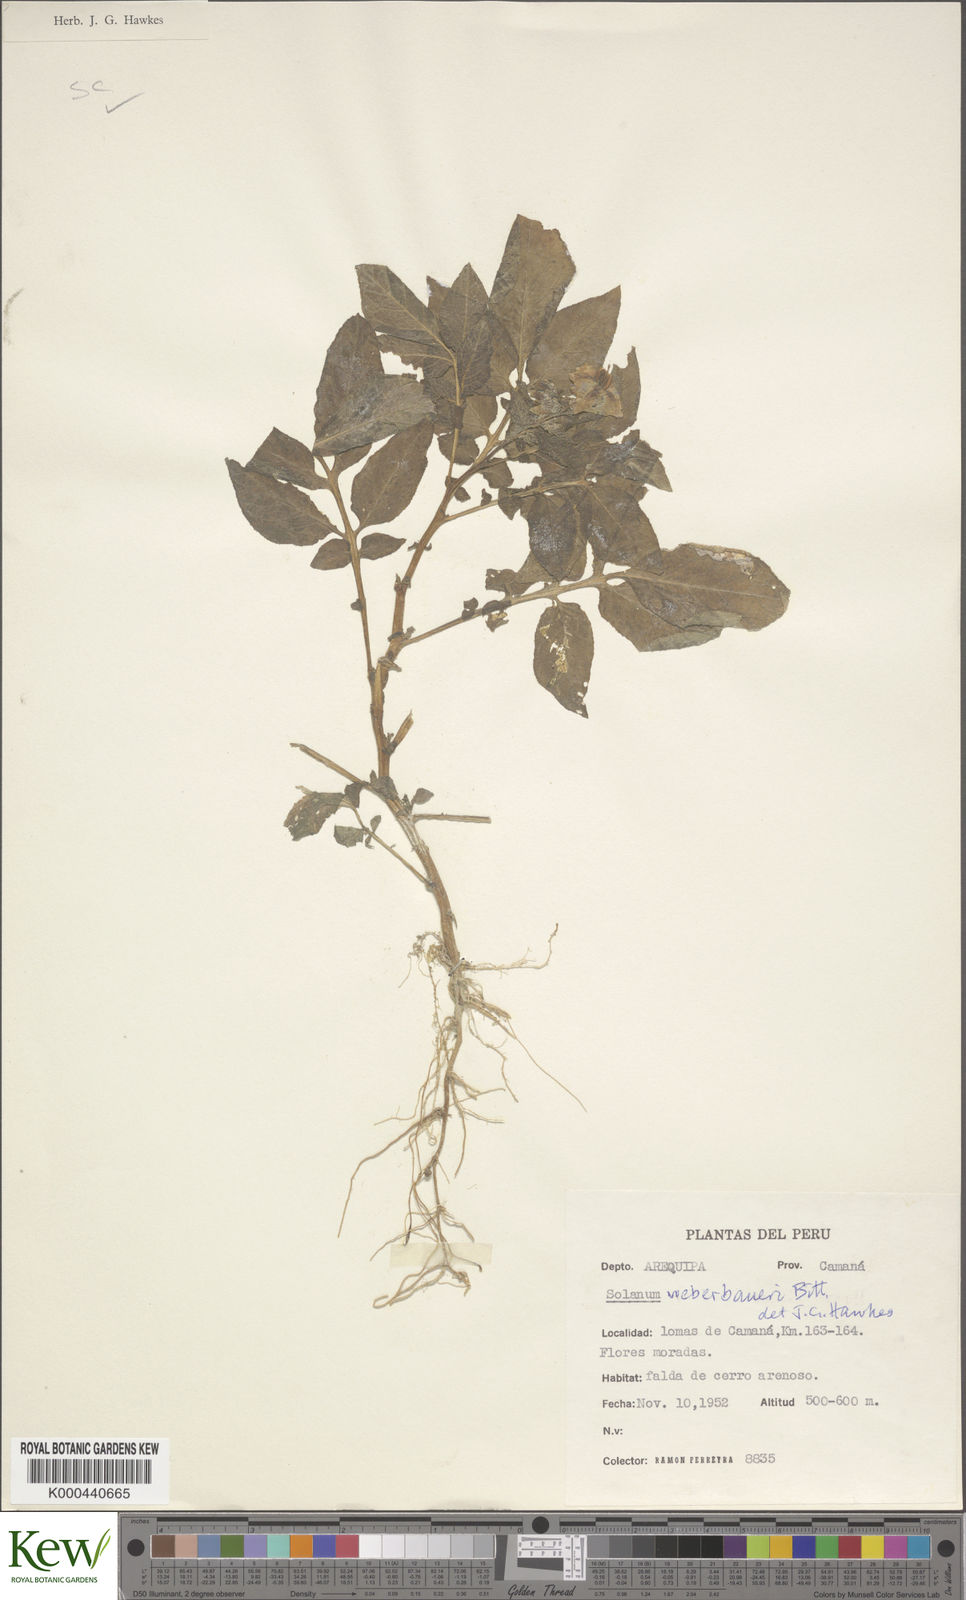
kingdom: Plantae
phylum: Tracheophyta
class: Magnoliopsida
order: Solanales
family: Solanaceae
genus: Solanum
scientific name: Solanum medians
